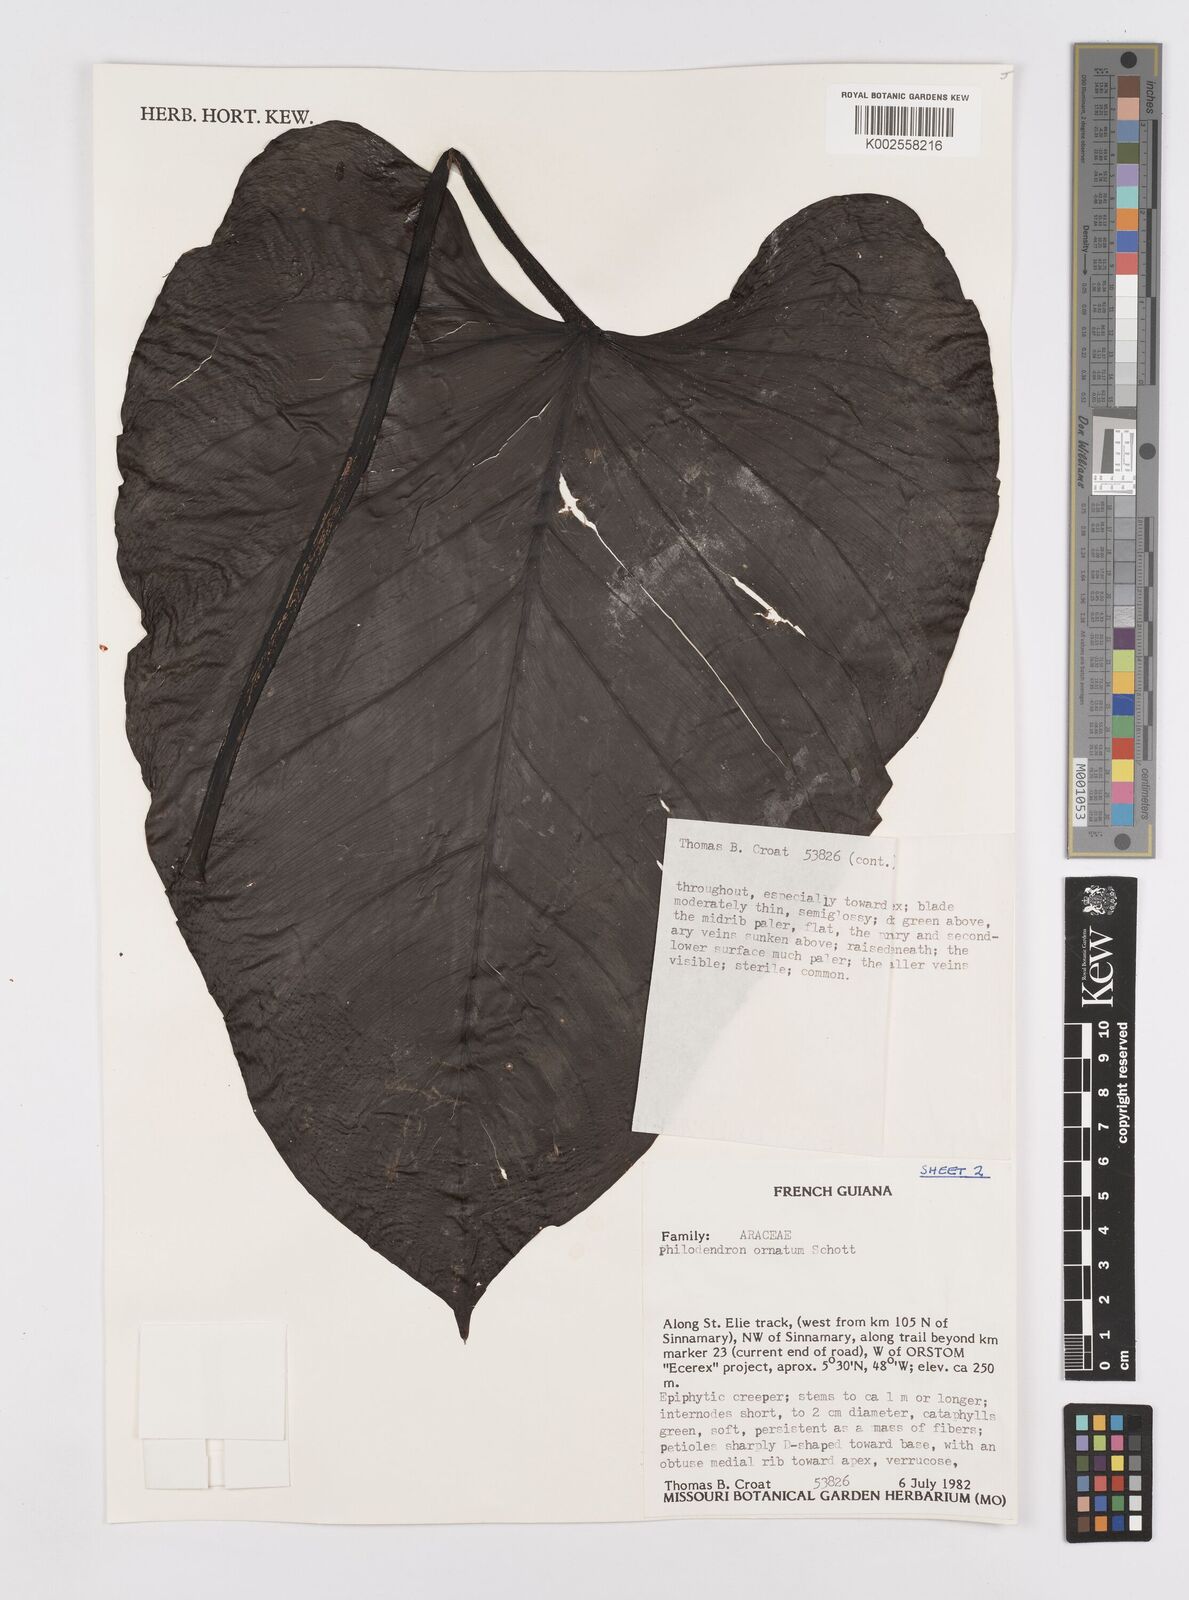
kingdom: Plantae
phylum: Tracheophyta
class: Liliopsida
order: Alismatales
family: Araceae
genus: Philodendron
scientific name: Philodendron ornatum
